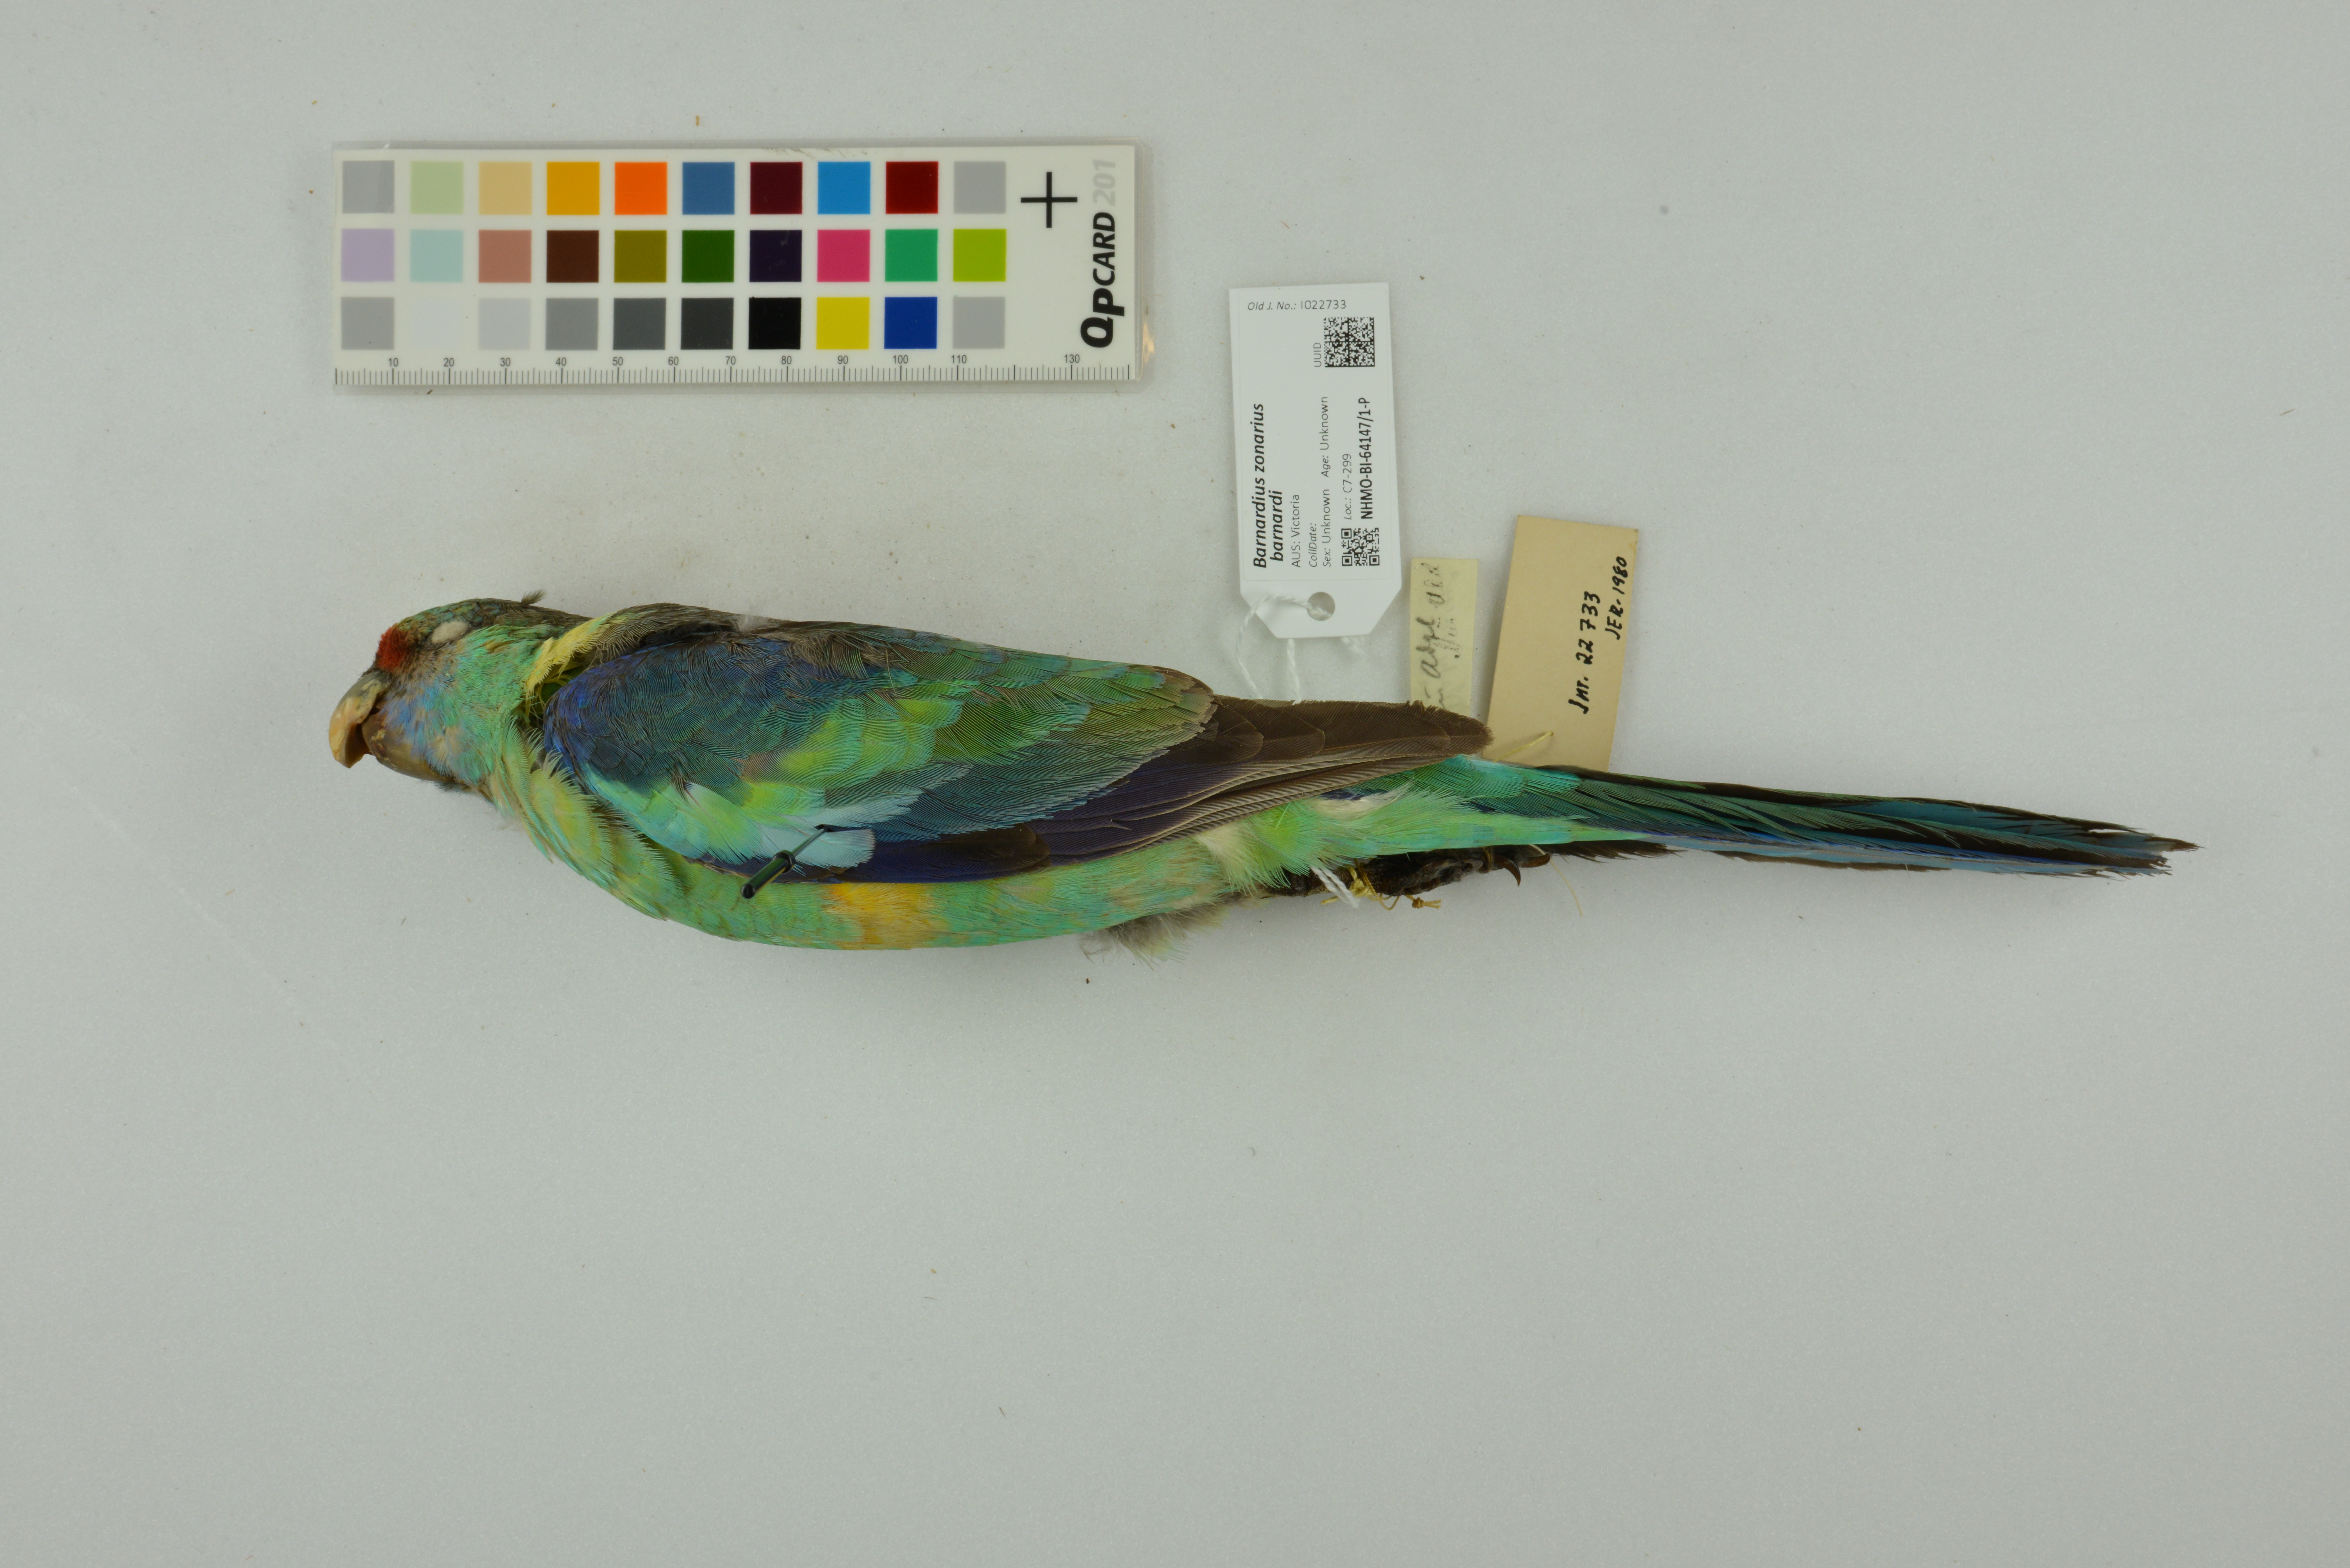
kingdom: Animalia
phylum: Chordata
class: Aves
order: Psittaciformes
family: Psittacidae
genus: Barnardius
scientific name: Barnardius zonarius
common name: Australian ringneck
